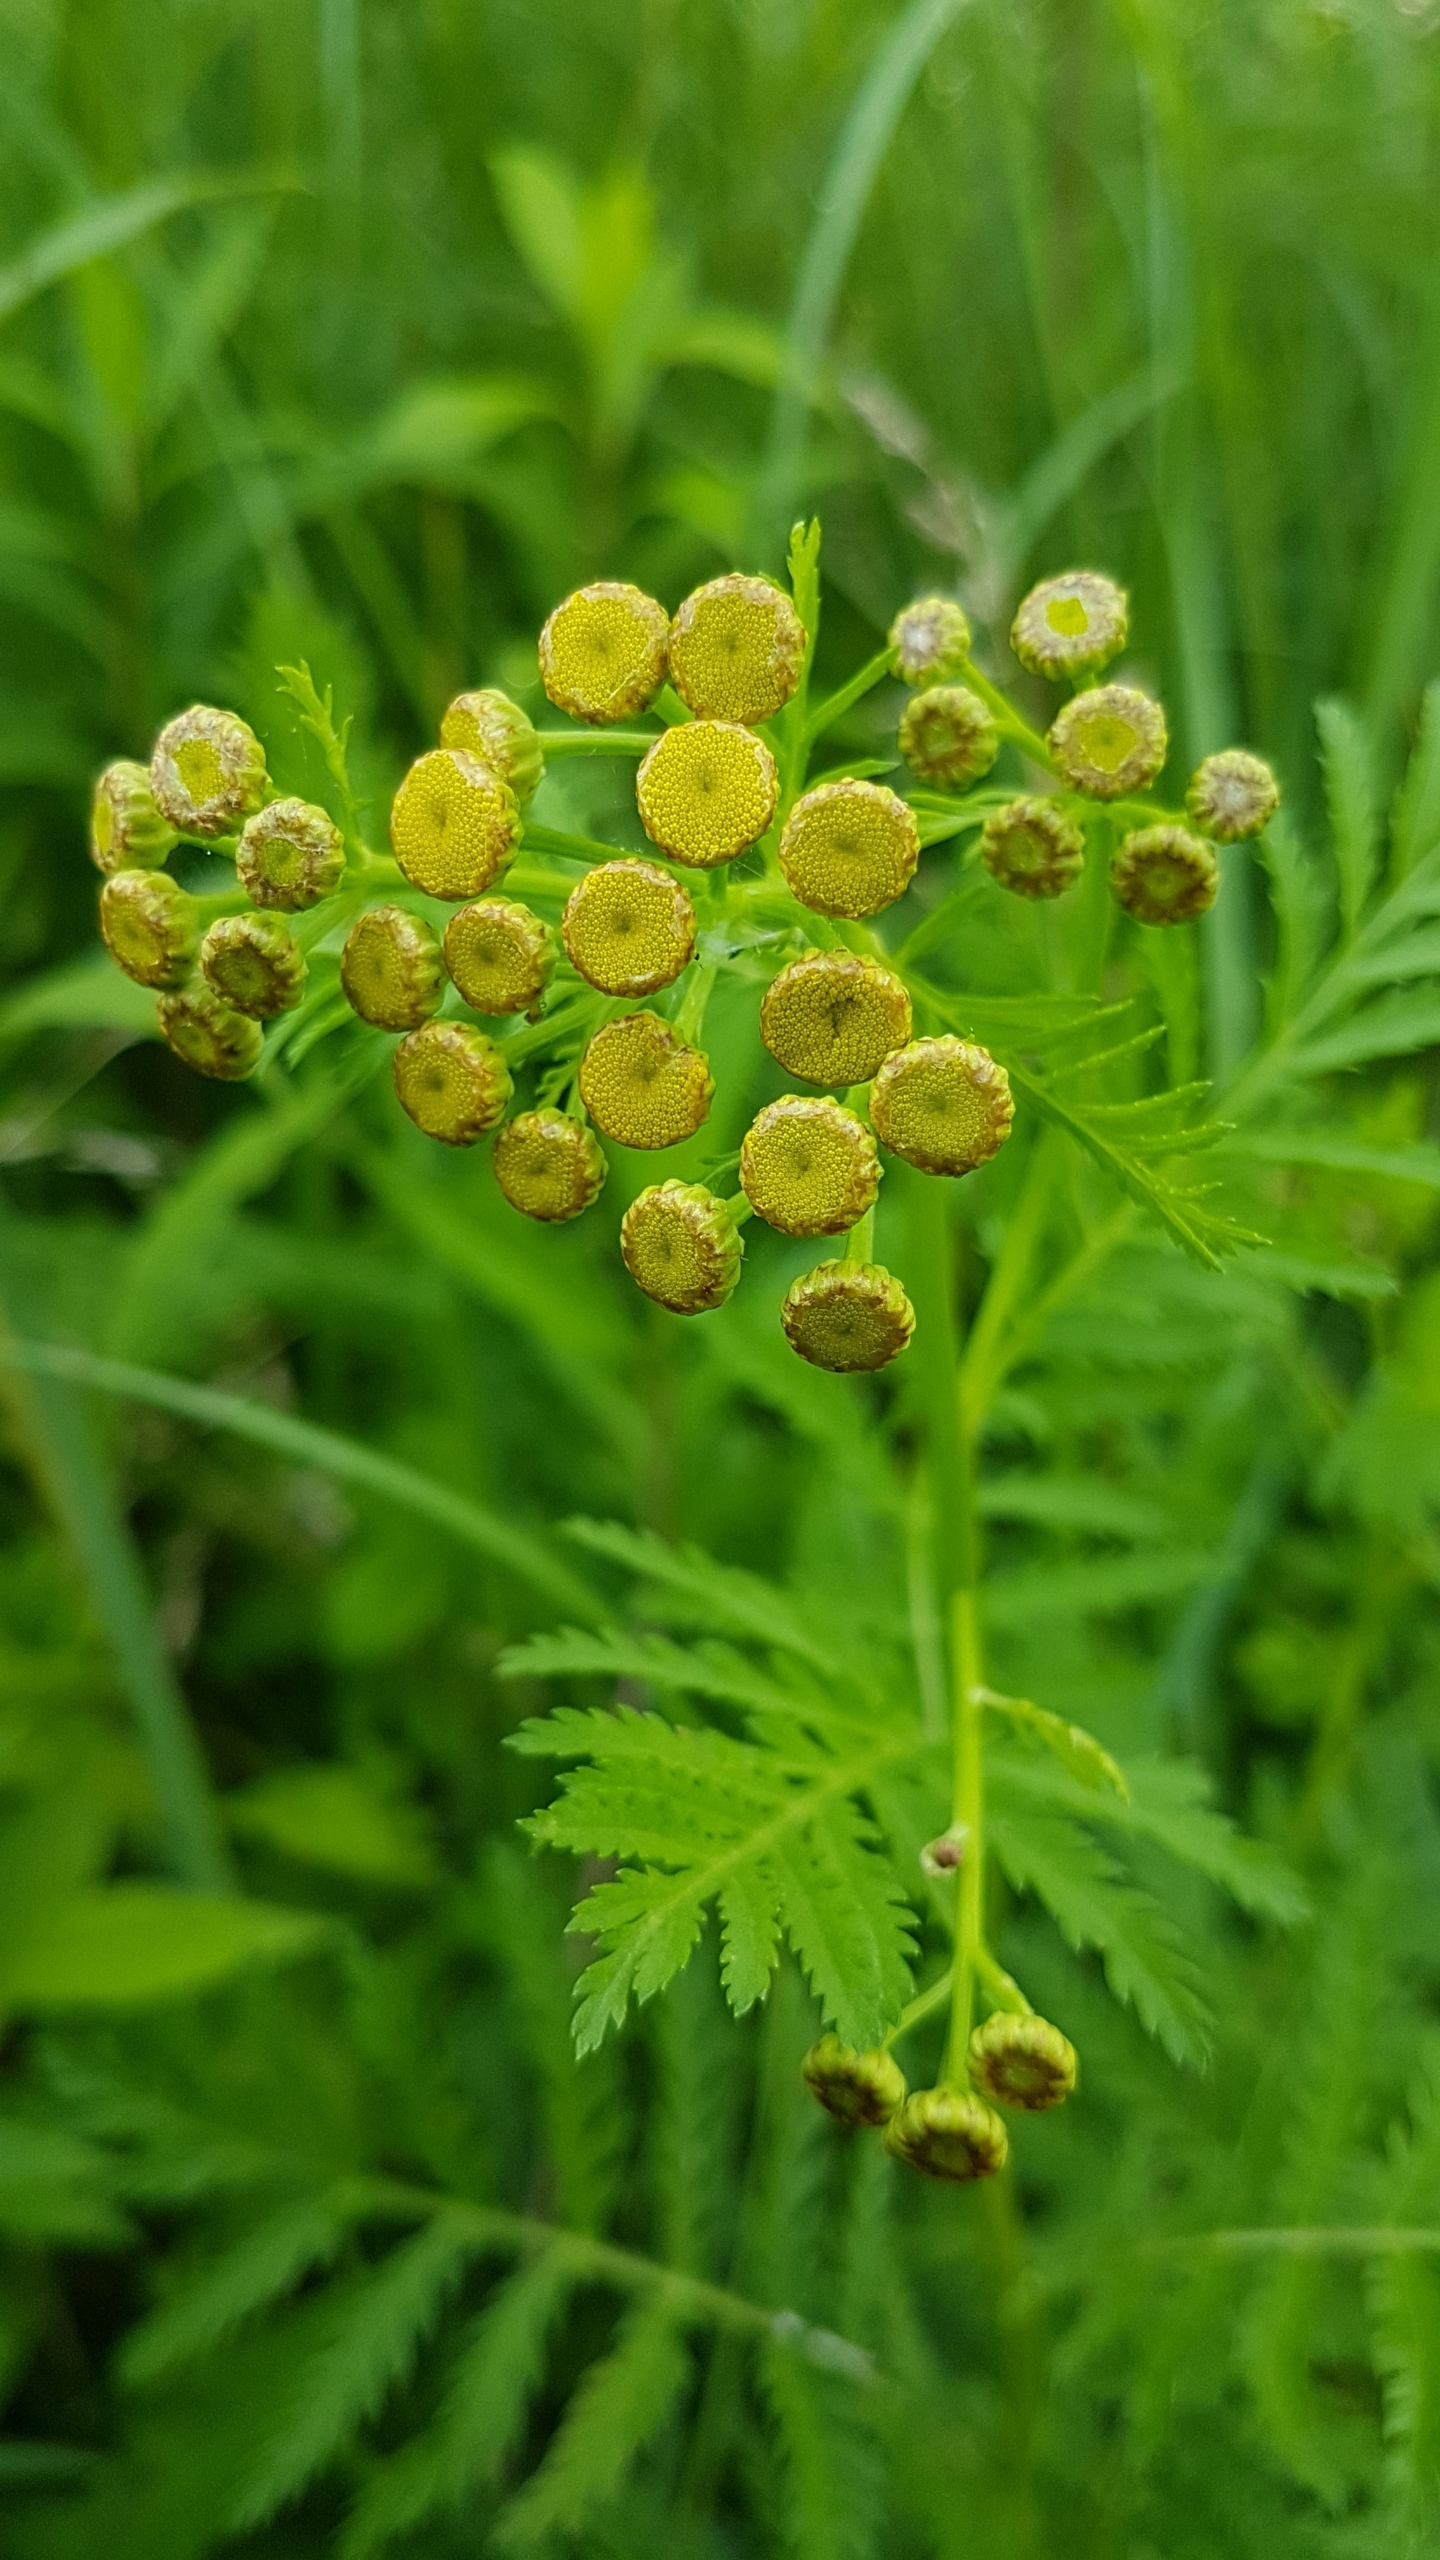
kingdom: Plantae
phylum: Tracheophyta
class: Magnoliopsida
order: Asterales
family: Asteraceae
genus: Tanacetum
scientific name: Tanacetum vulgare
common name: Rejnfan
